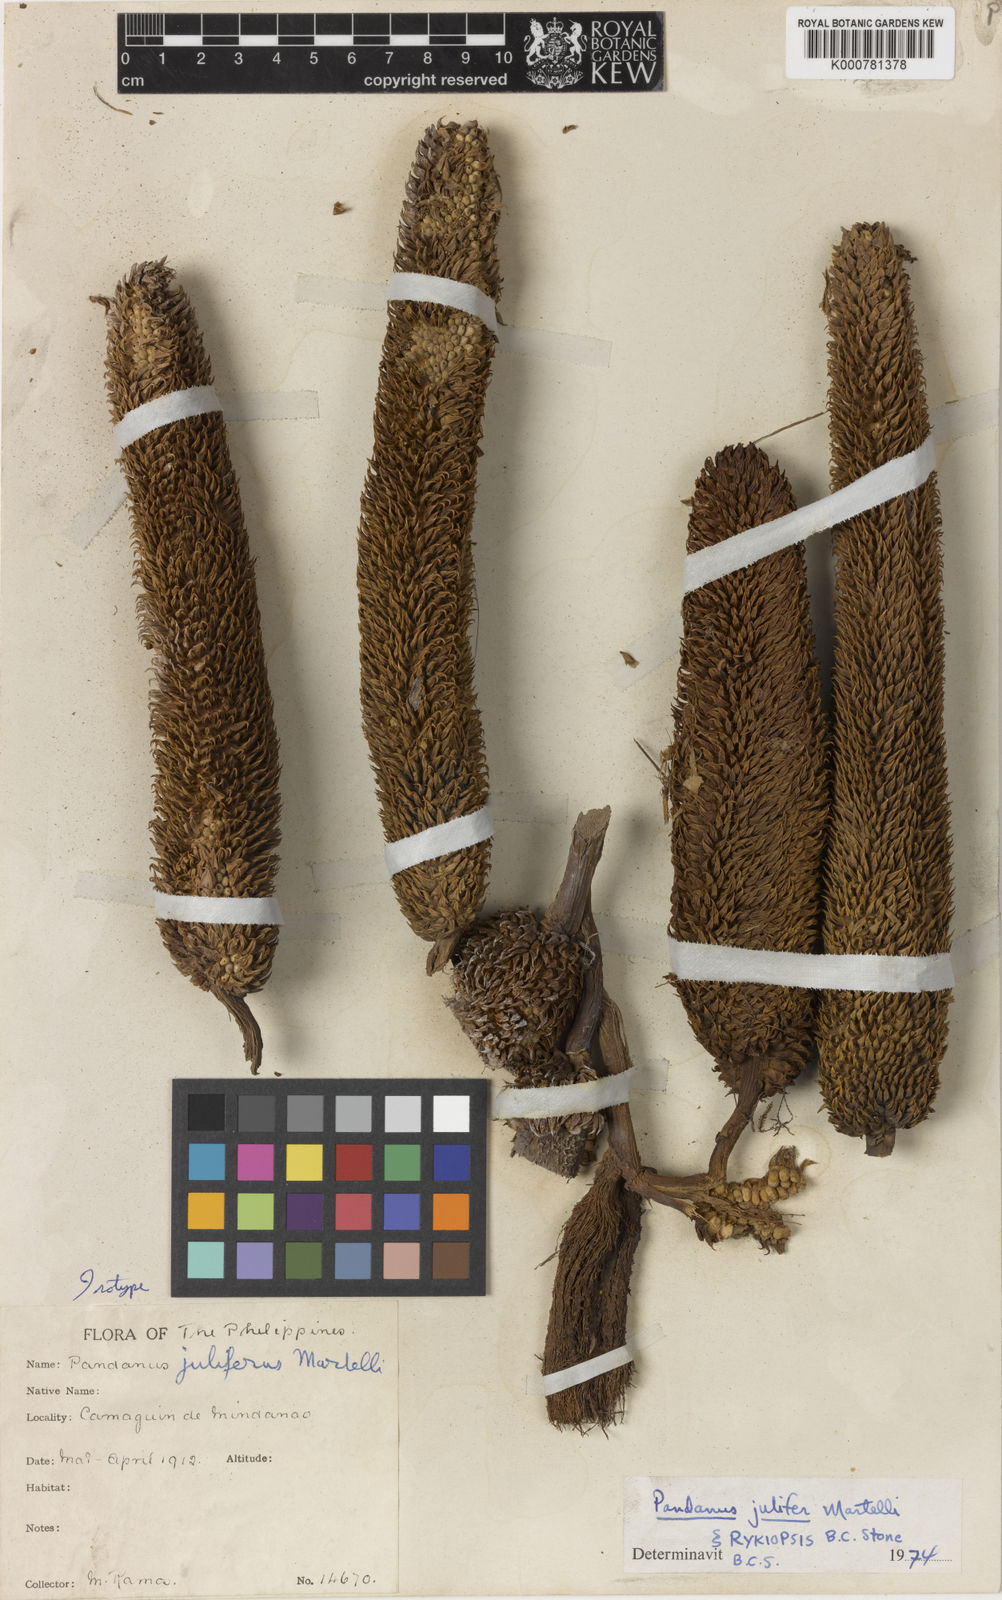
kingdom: Plantae
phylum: Tracheophyta
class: Liliopsida
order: Pandanales
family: Pandanaceae
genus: Pandanus
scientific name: Pandanus
